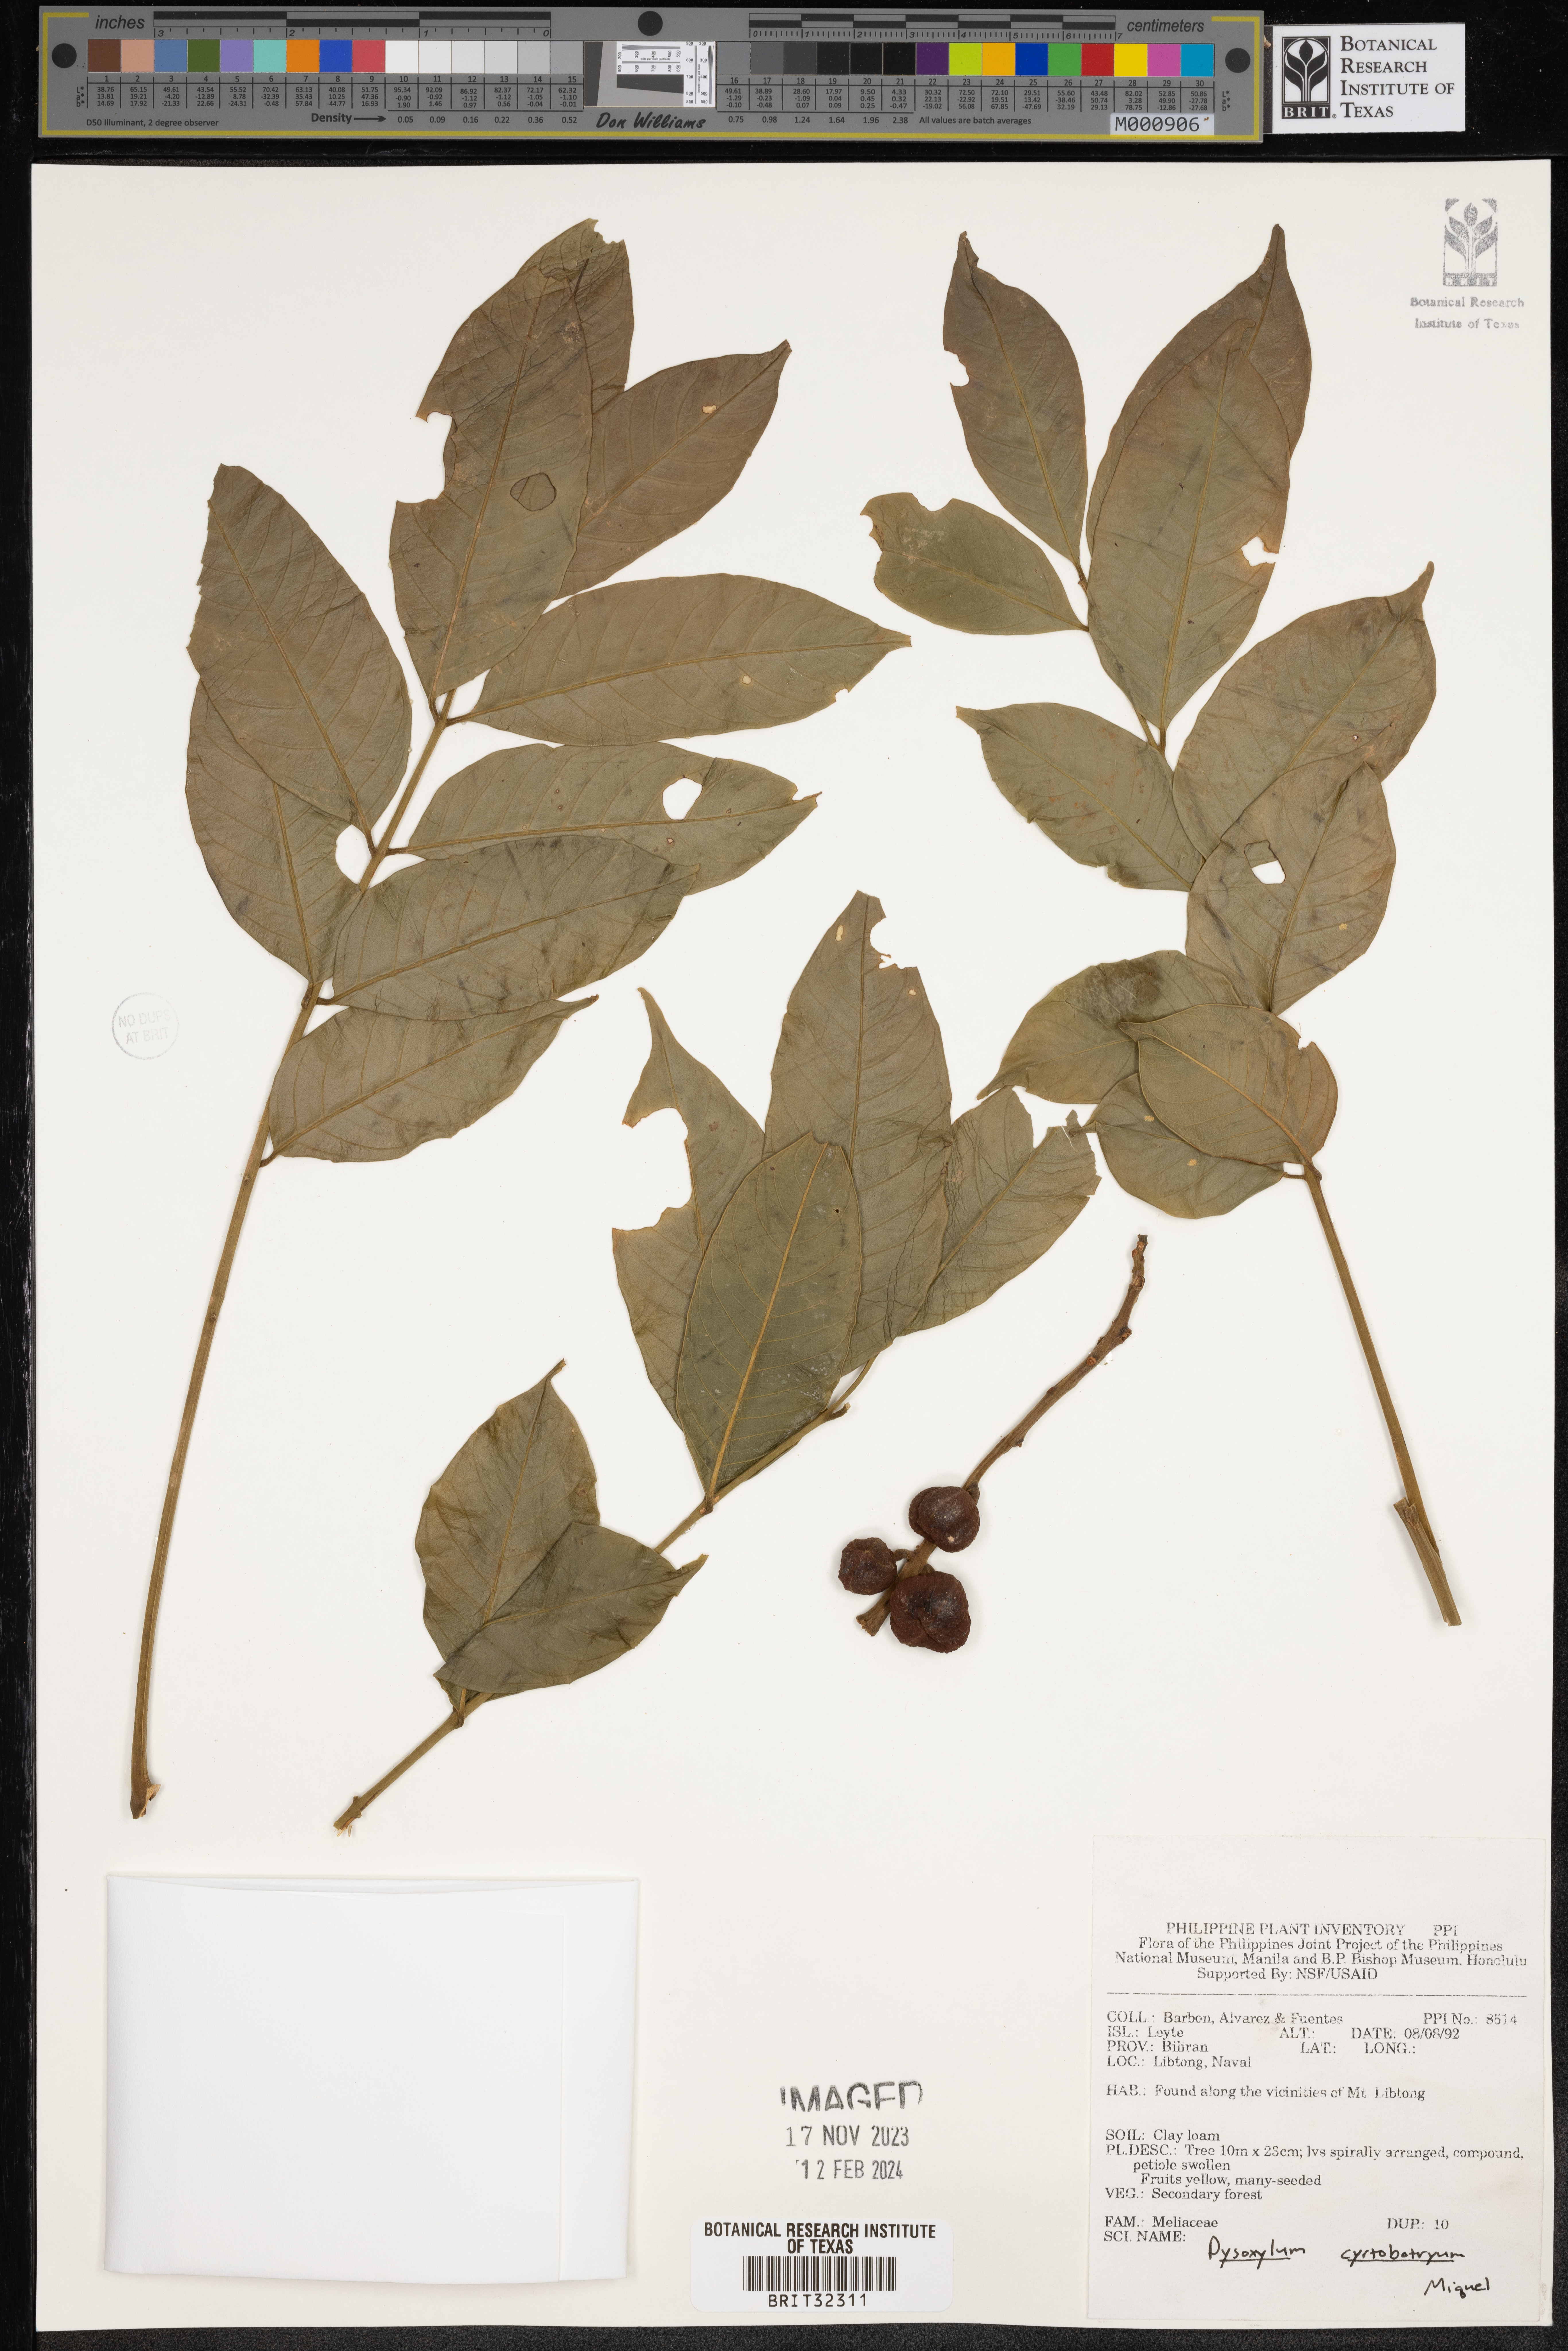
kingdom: Plantae
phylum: Tracheophyta
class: Magnoliopsida
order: Sapindales
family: Meliaceae
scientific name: Meliaceae
